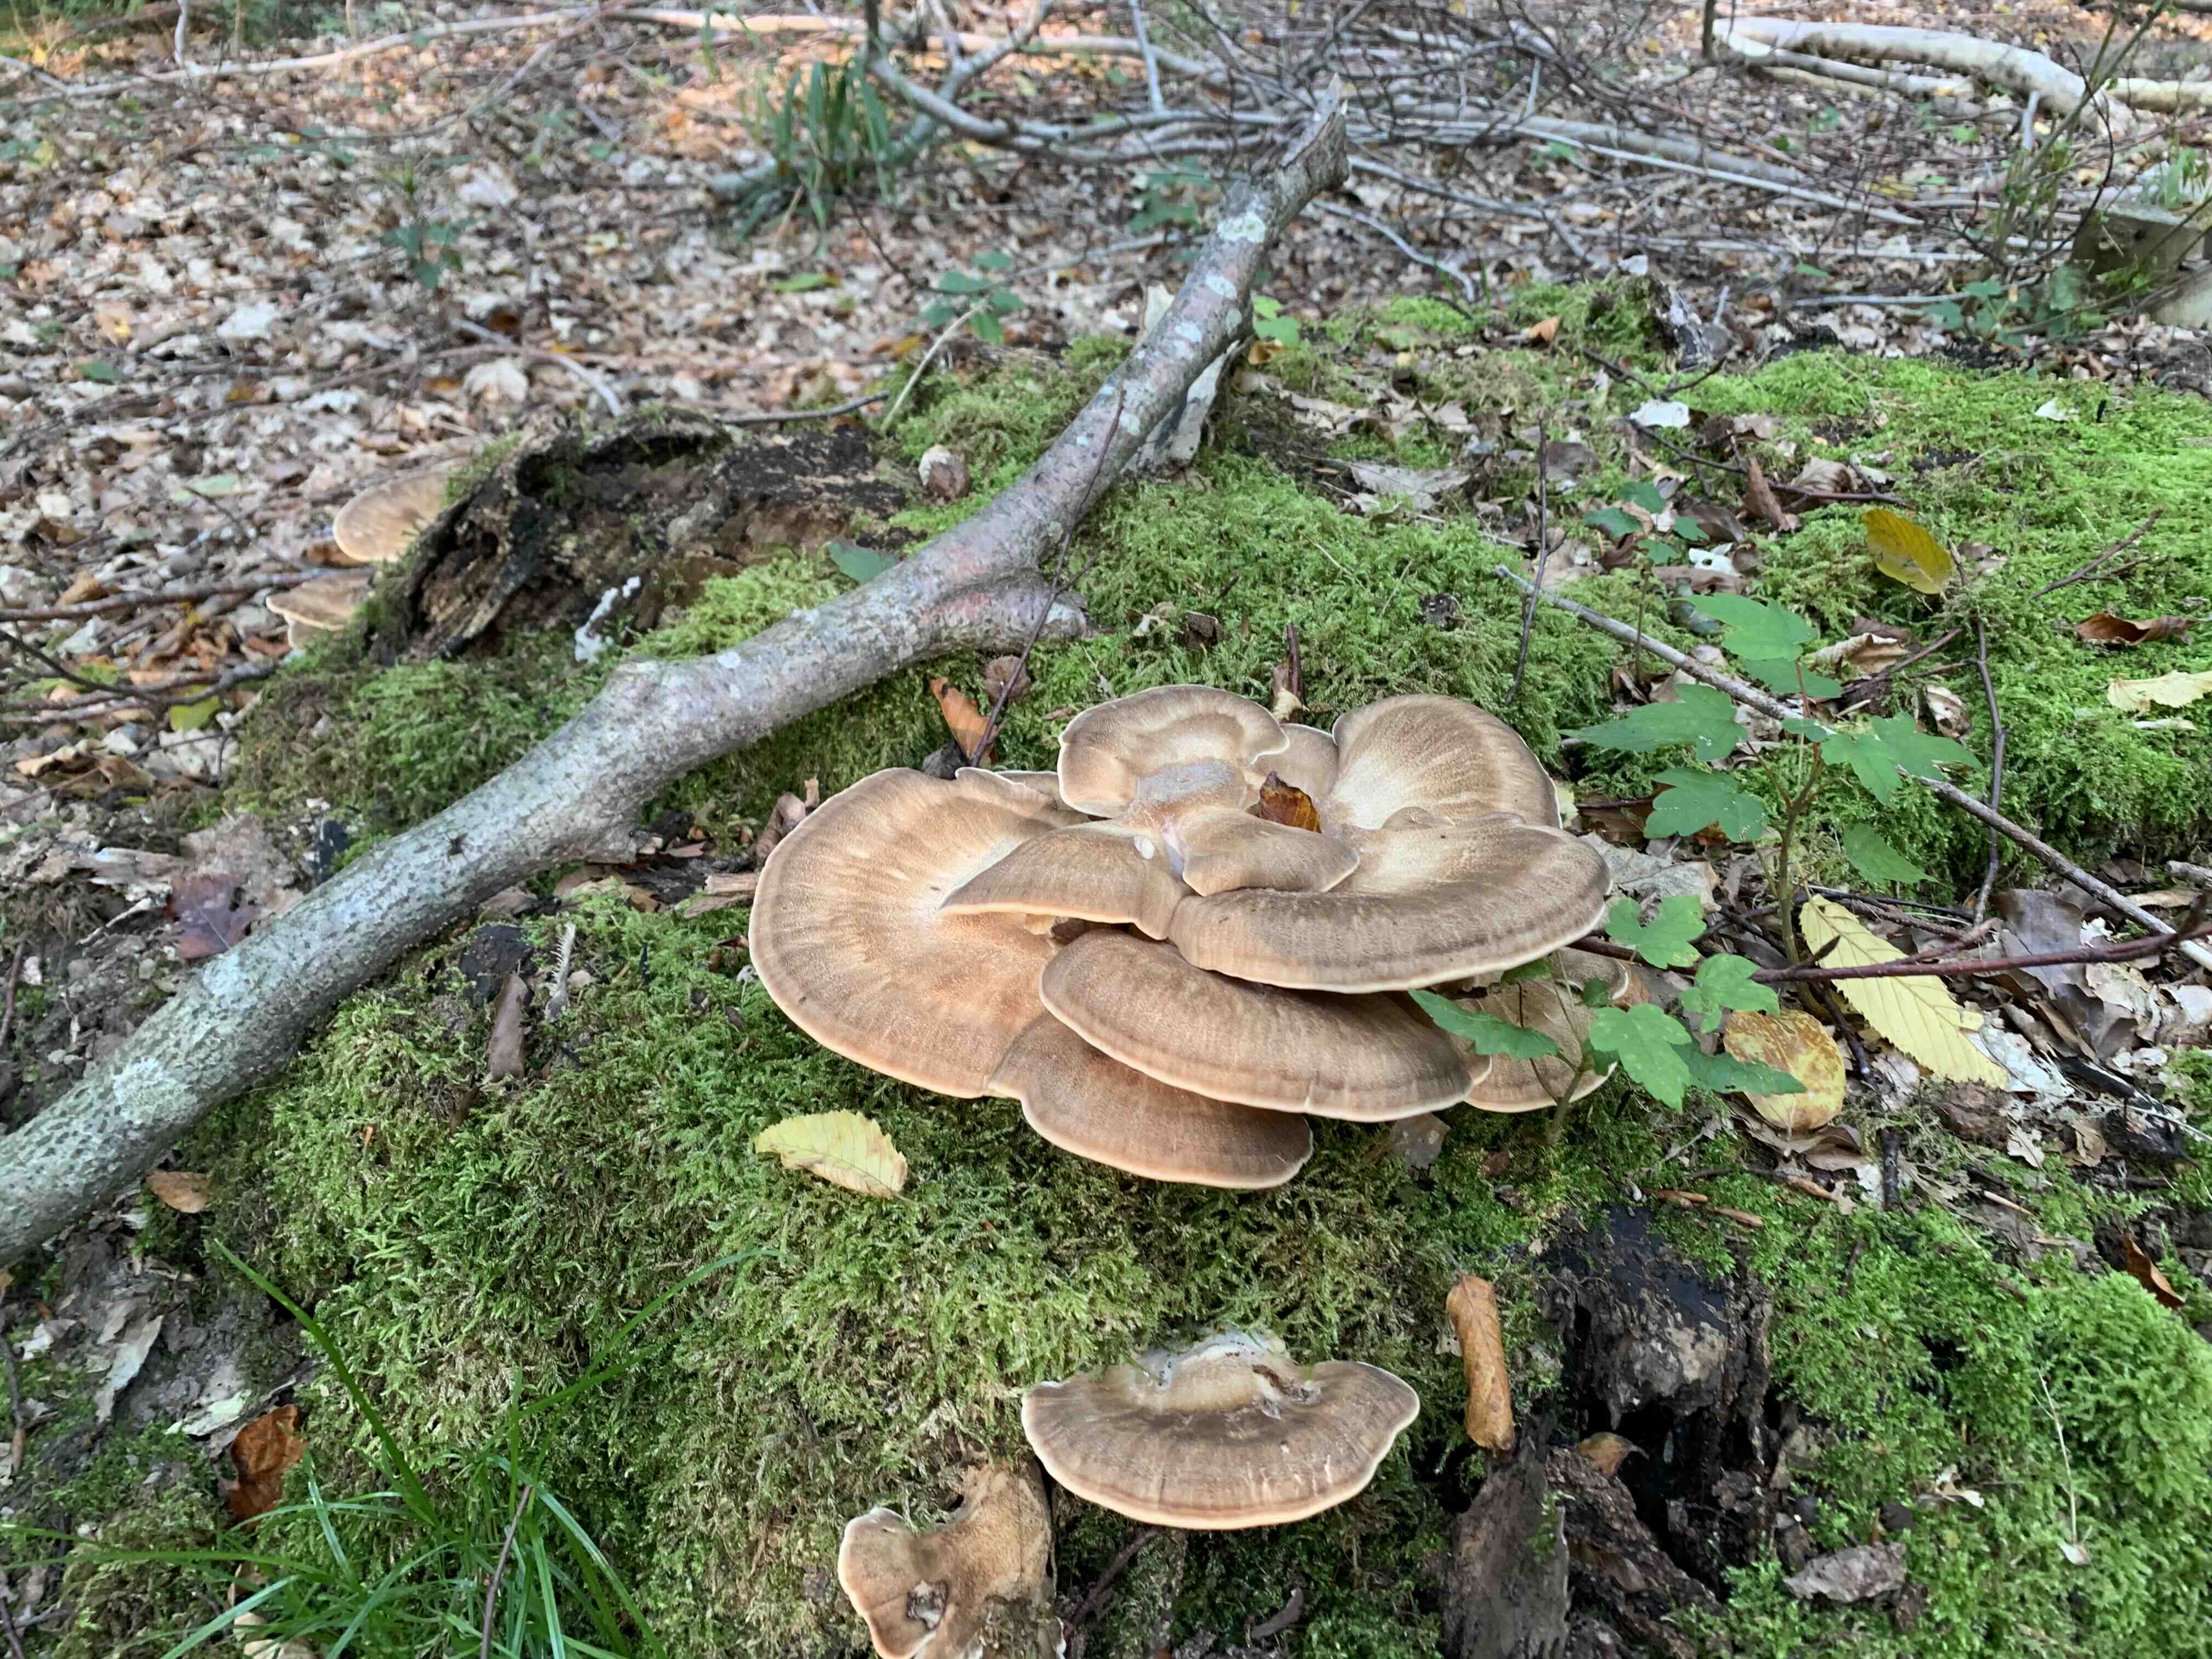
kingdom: Fungi
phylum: Basidiomycota
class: Agaricomycetes
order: Polyporales
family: Meripilaceae
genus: Meripilus
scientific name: Meripilus giganteus
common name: kæmpeporesvamp
